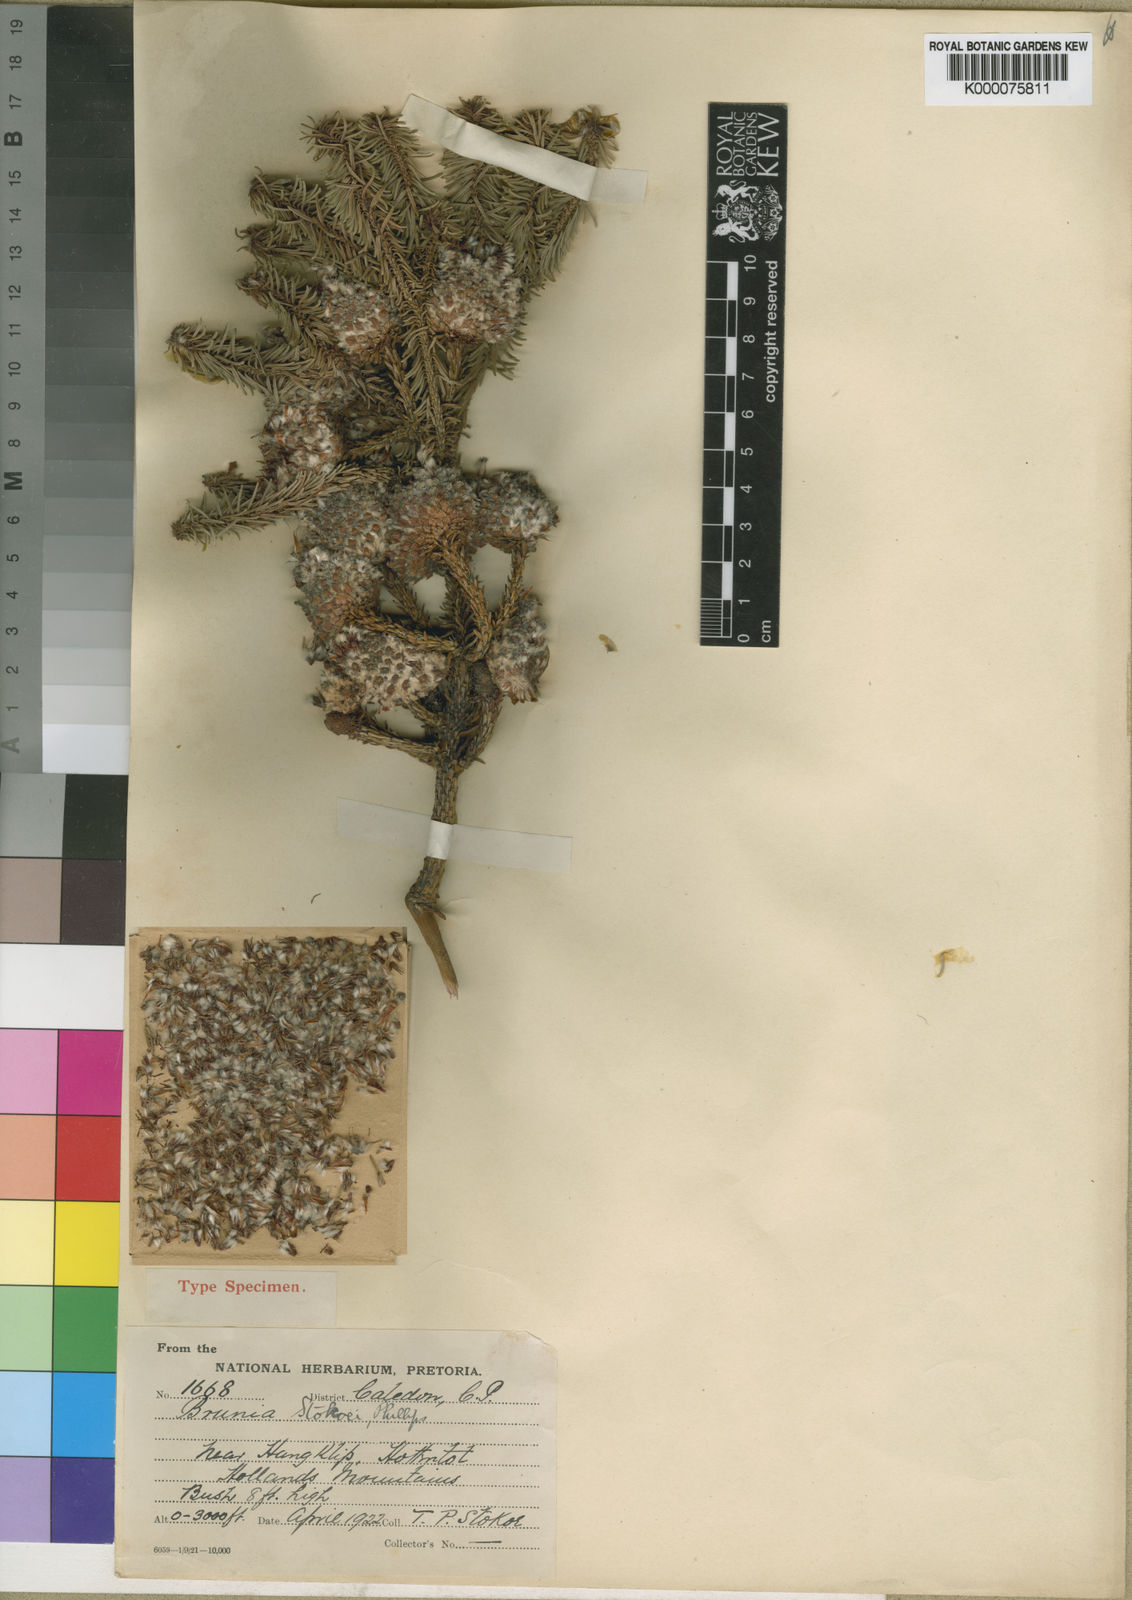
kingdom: Plantae
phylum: Tracheophyta
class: Magnoliopsida
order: Bruniales
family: Bruniaceae
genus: Berzelia
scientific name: Berzelia stokoei
